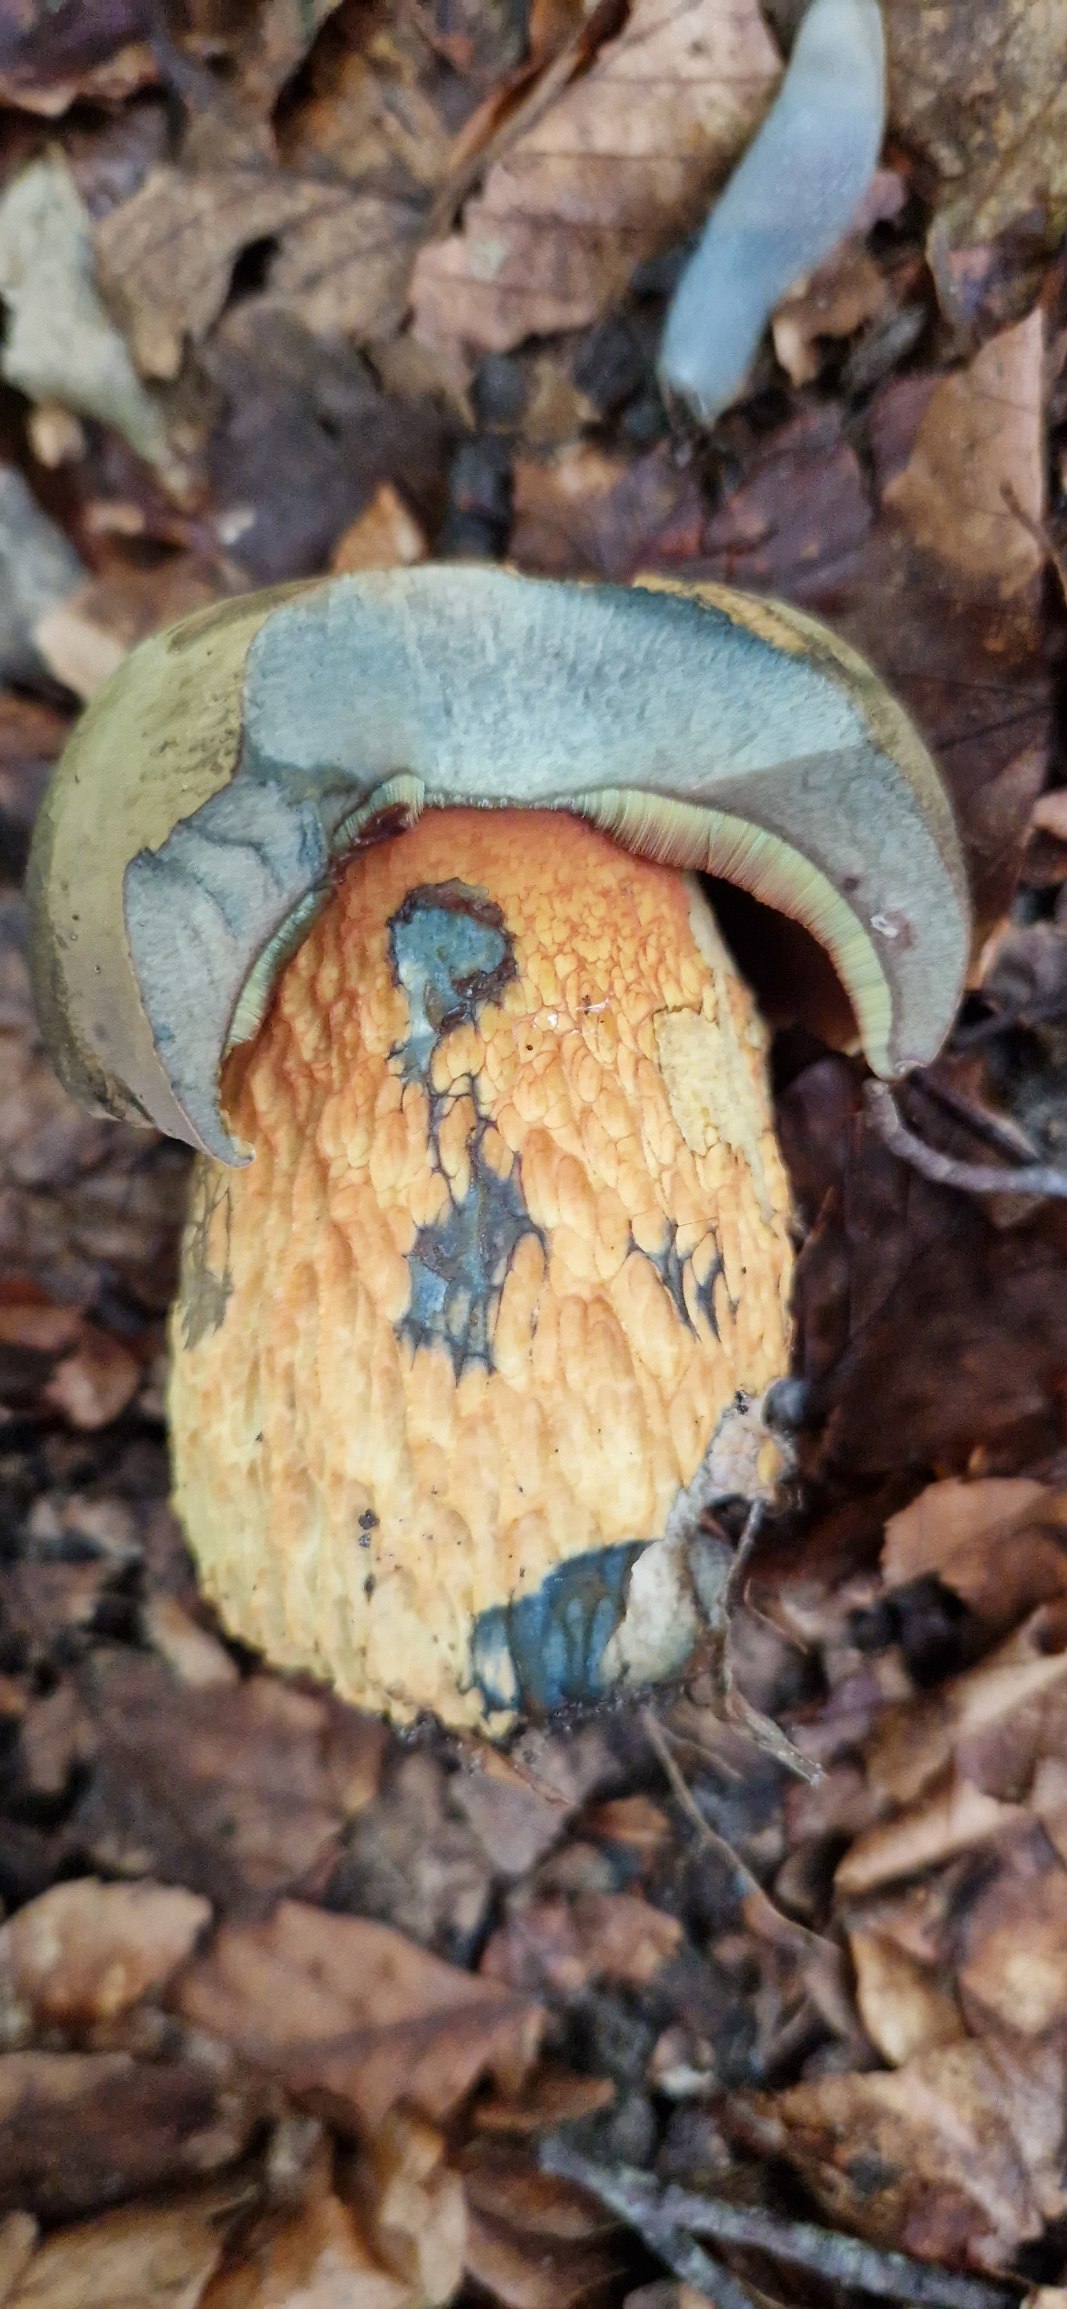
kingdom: Fungi
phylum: Basidiomycota
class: Agaricomycetes
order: Boletales
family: Boletaceae
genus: Suillellus
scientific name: Suillellus luridus
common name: Netstokket indigorørhat
